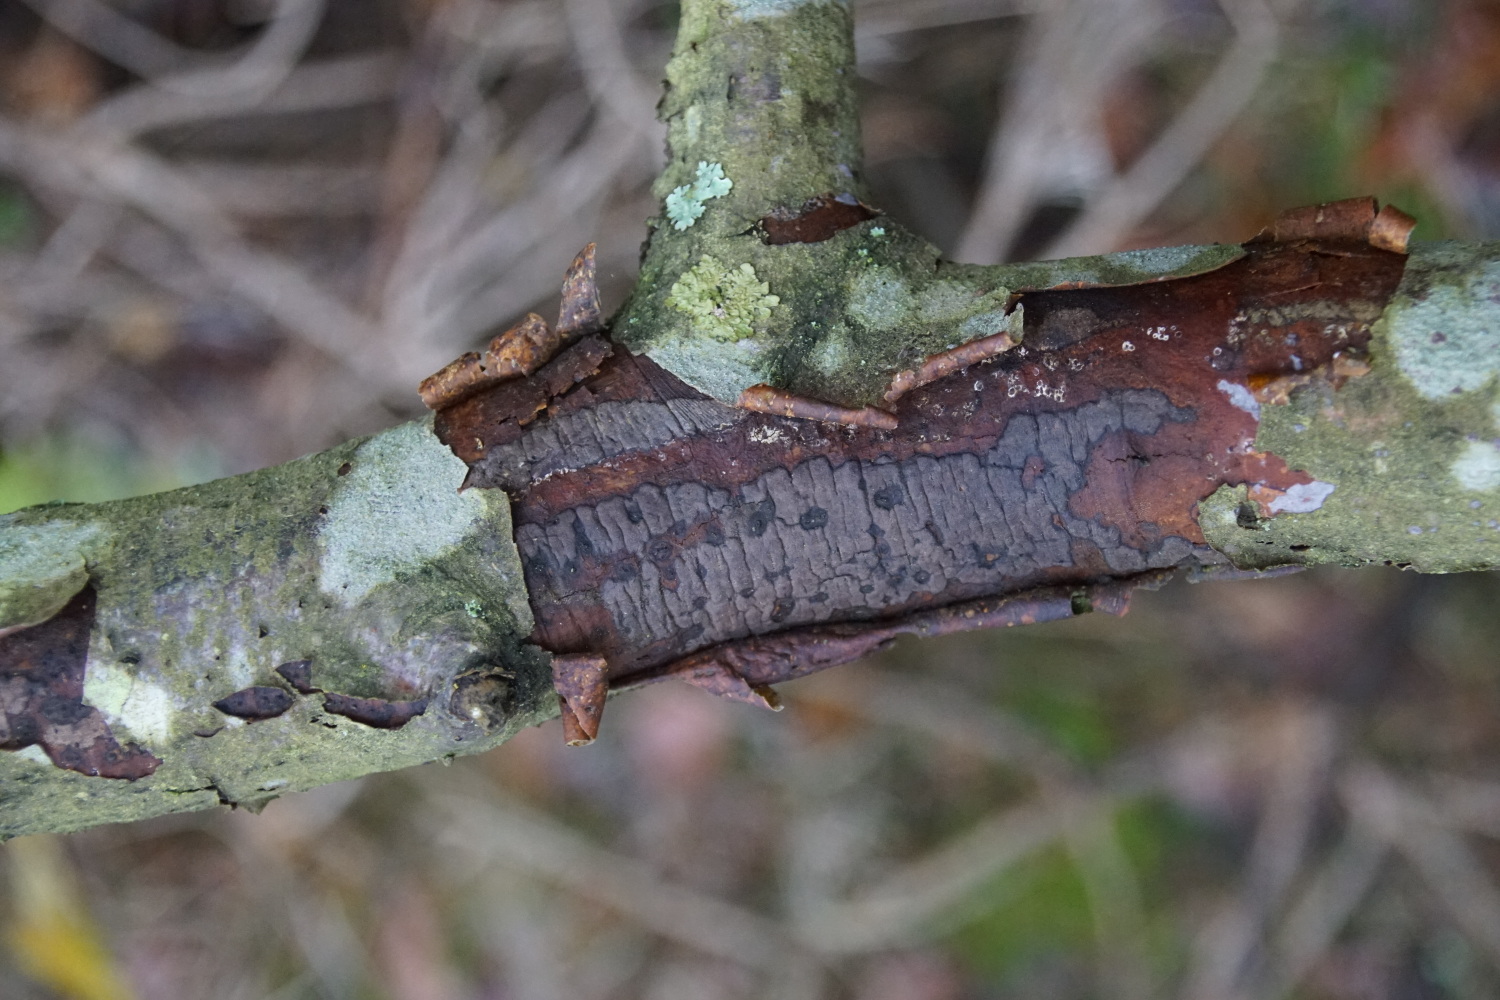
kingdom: Fungi
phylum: Ascomycota
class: Sordariomycetes
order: Xylariales
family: Diatrypaceae
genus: Diatrype
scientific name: Diatrype decorticata
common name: barksprænger-kulskorpe
